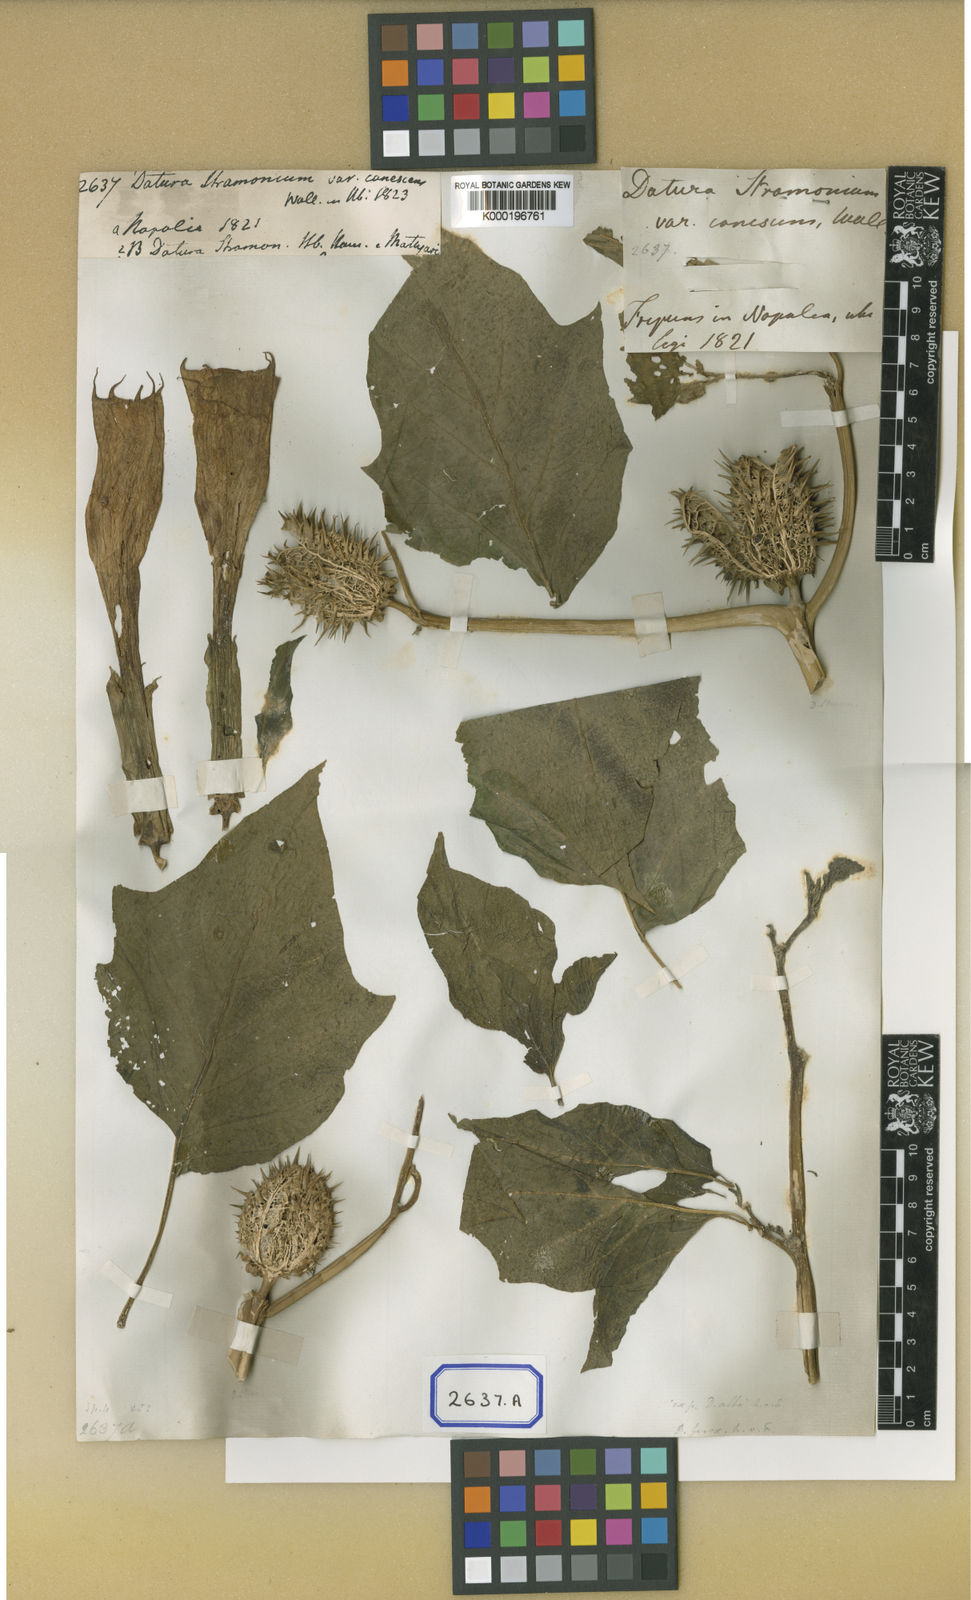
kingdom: Plantae
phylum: Tracheophyta
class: Magnoliopsida
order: Solanales
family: Solanaceae
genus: Datura
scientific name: Datura stramonium
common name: Thorn-apple
